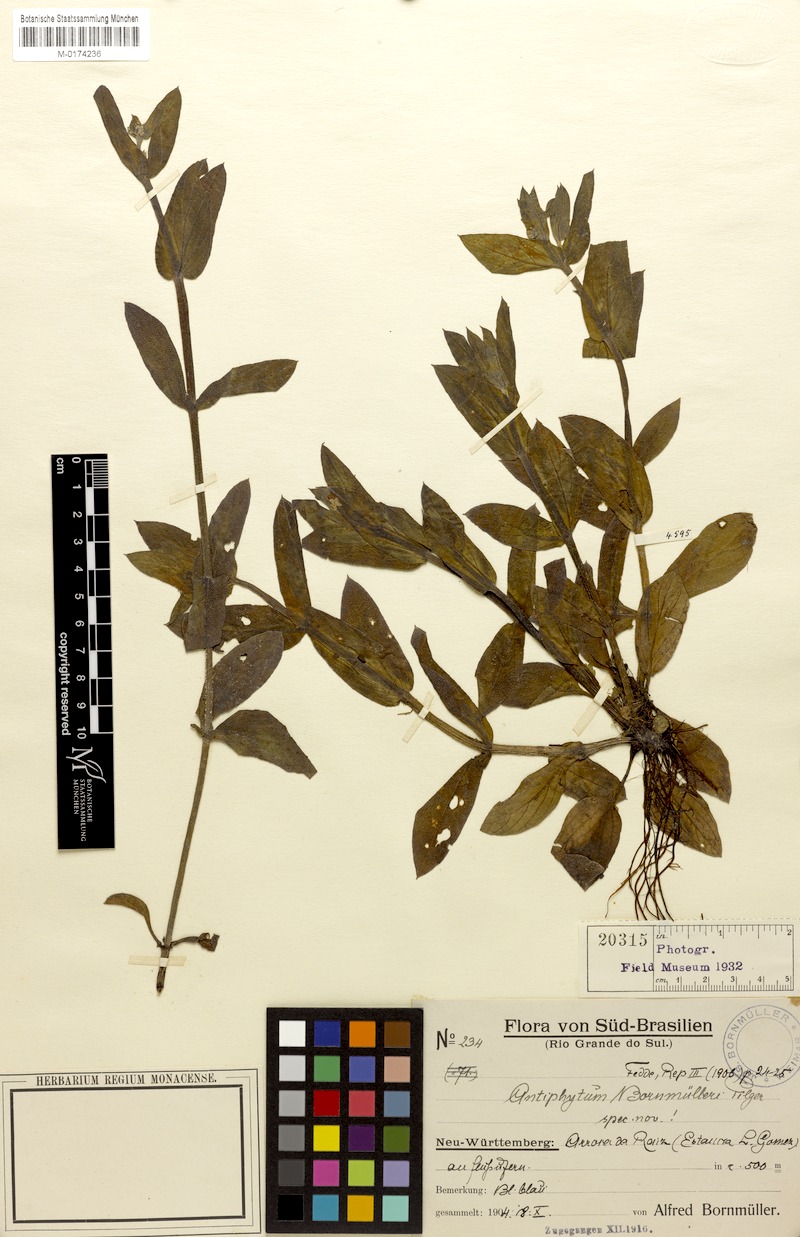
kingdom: Plantae
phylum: Tracheophyta
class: Magnoliopsida
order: Boraginales
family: Boraginaceae
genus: Antiphytum
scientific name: Antiphytum bornmuelleri
